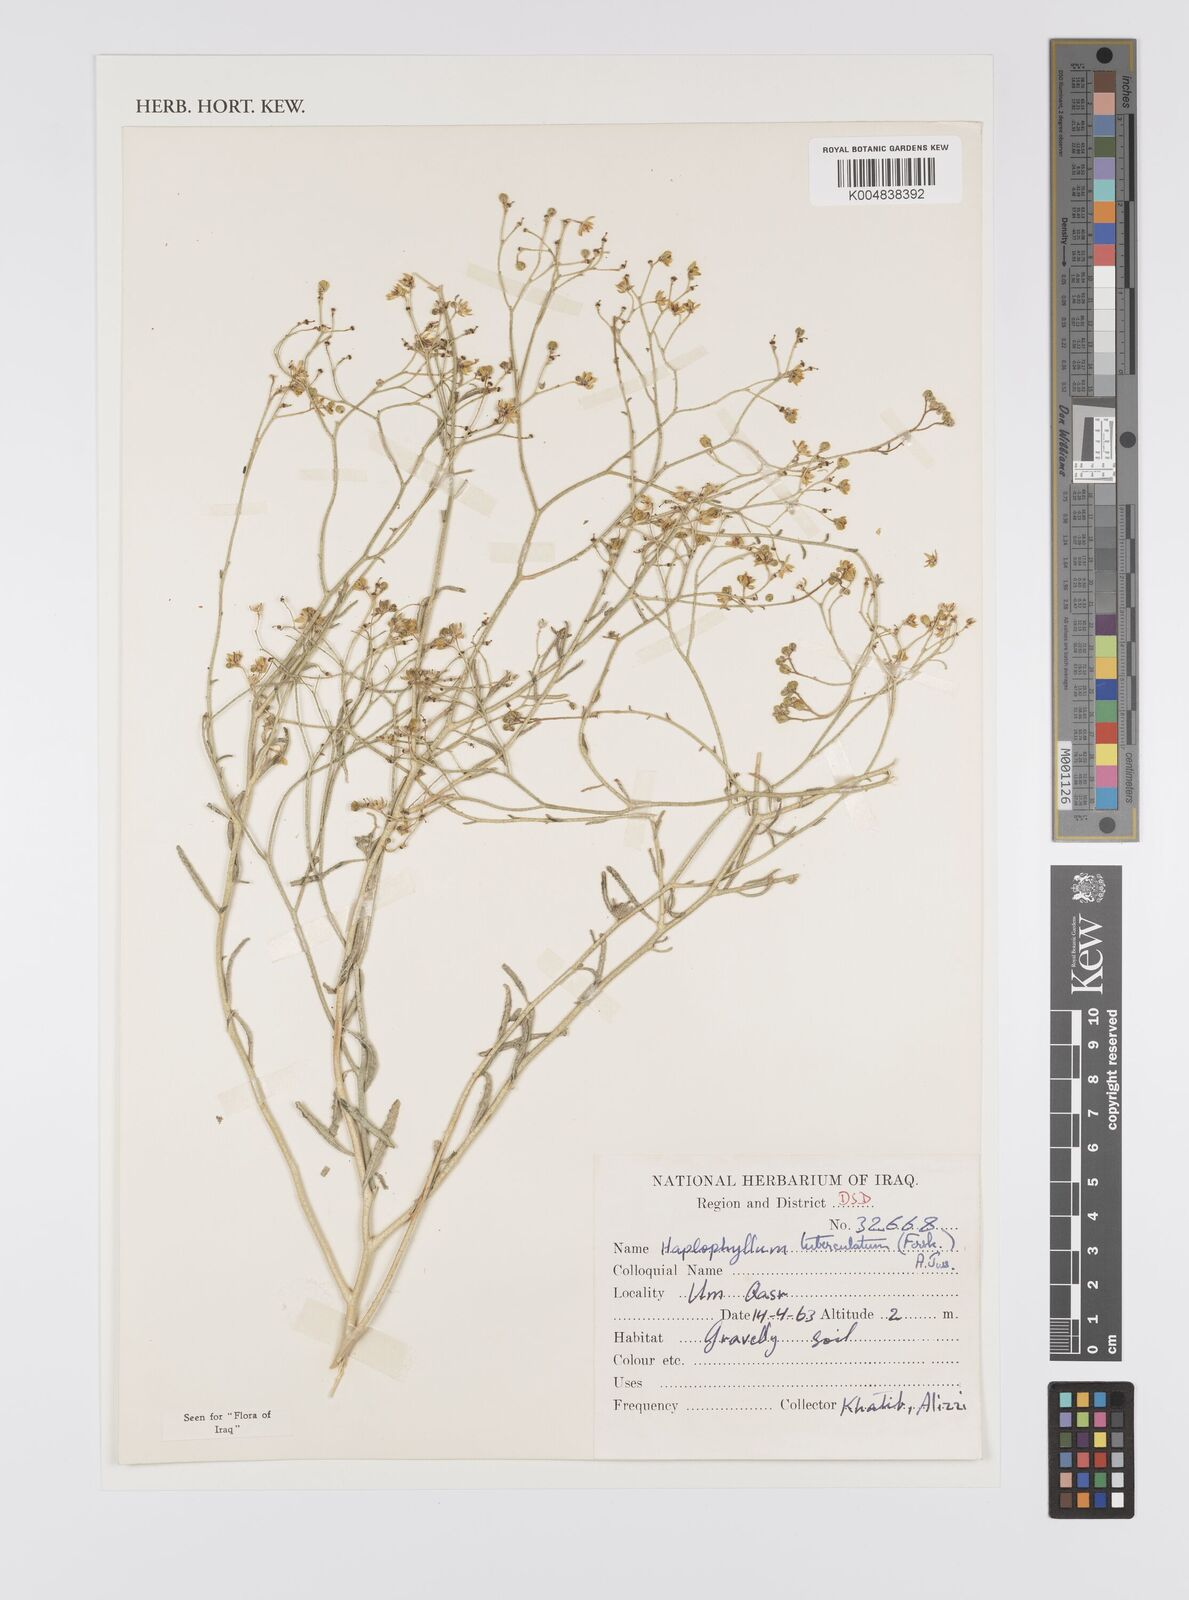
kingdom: Plantae
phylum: Tracheophyta
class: Magnoliopsida
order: Sapindales
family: Rutaceae
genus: Haplophyllum
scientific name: Haplophyllum tuberculatum
